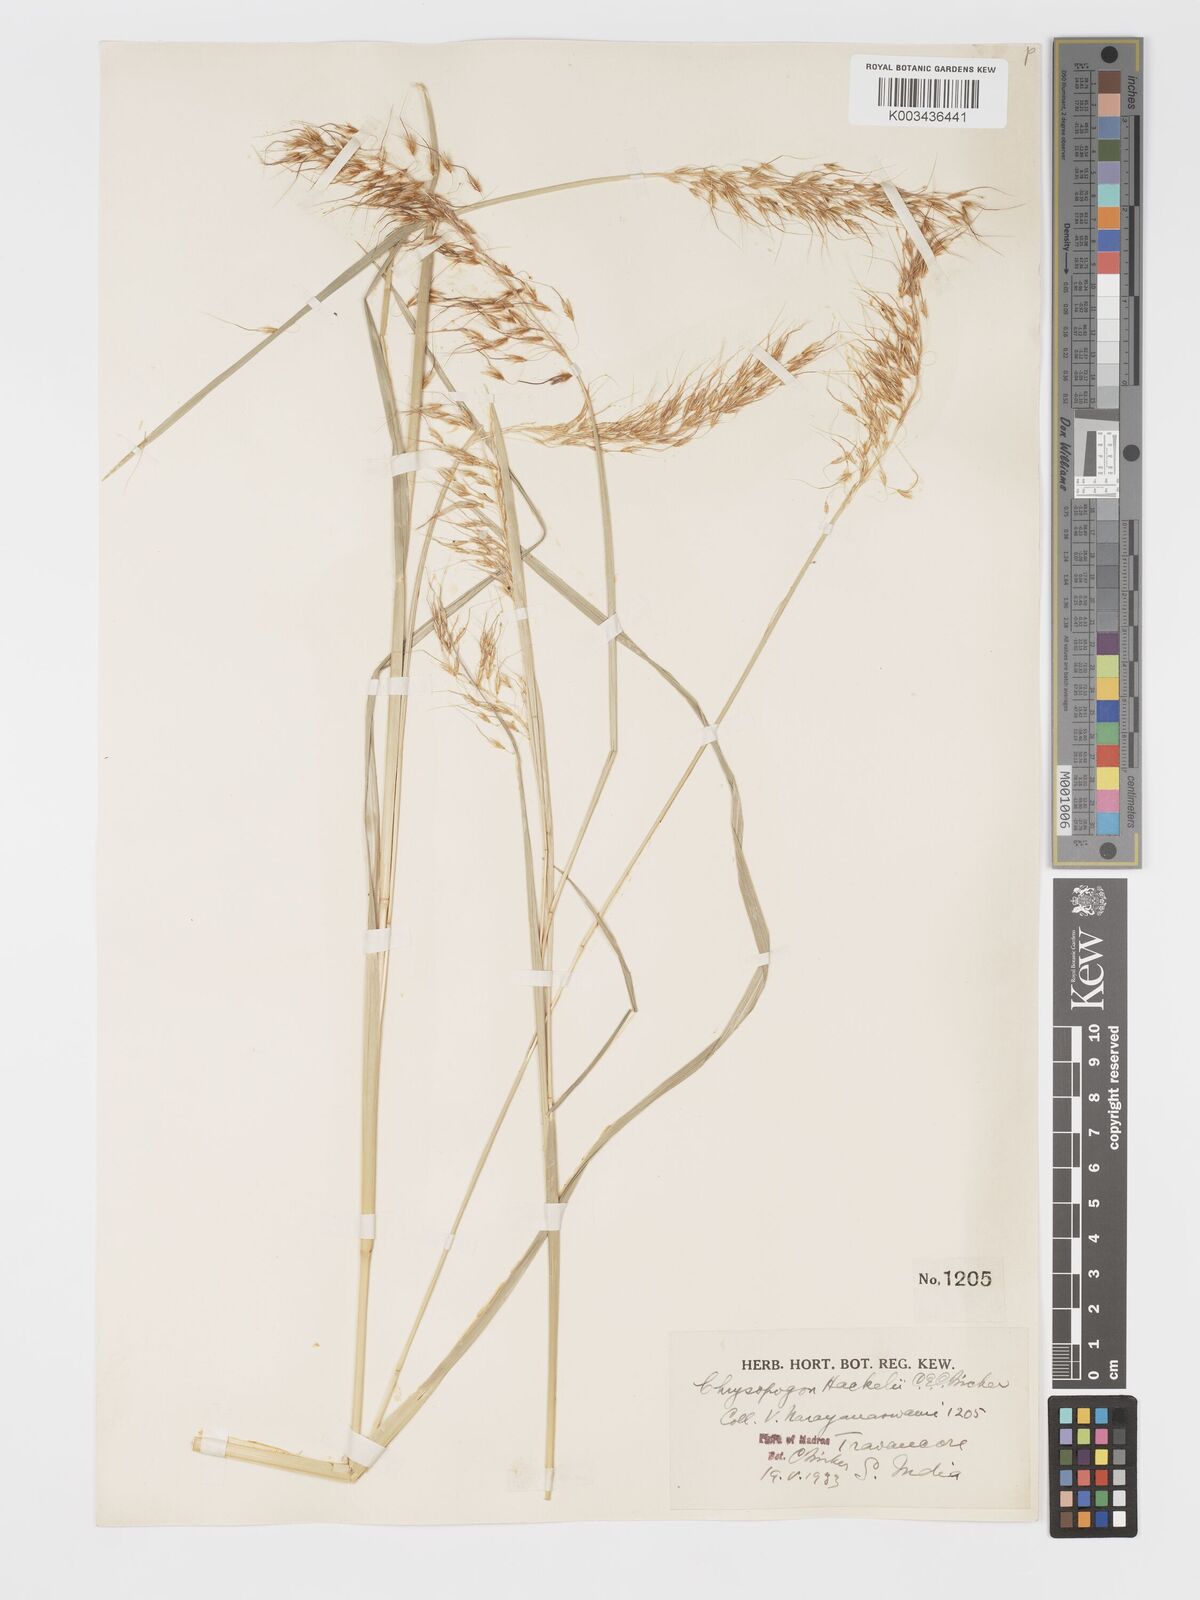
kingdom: Plantae
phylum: Tracheophyta
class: Liliopsida
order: Poales
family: Poaceae
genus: Chrysopogon
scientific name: Chrysopogon hackelii
